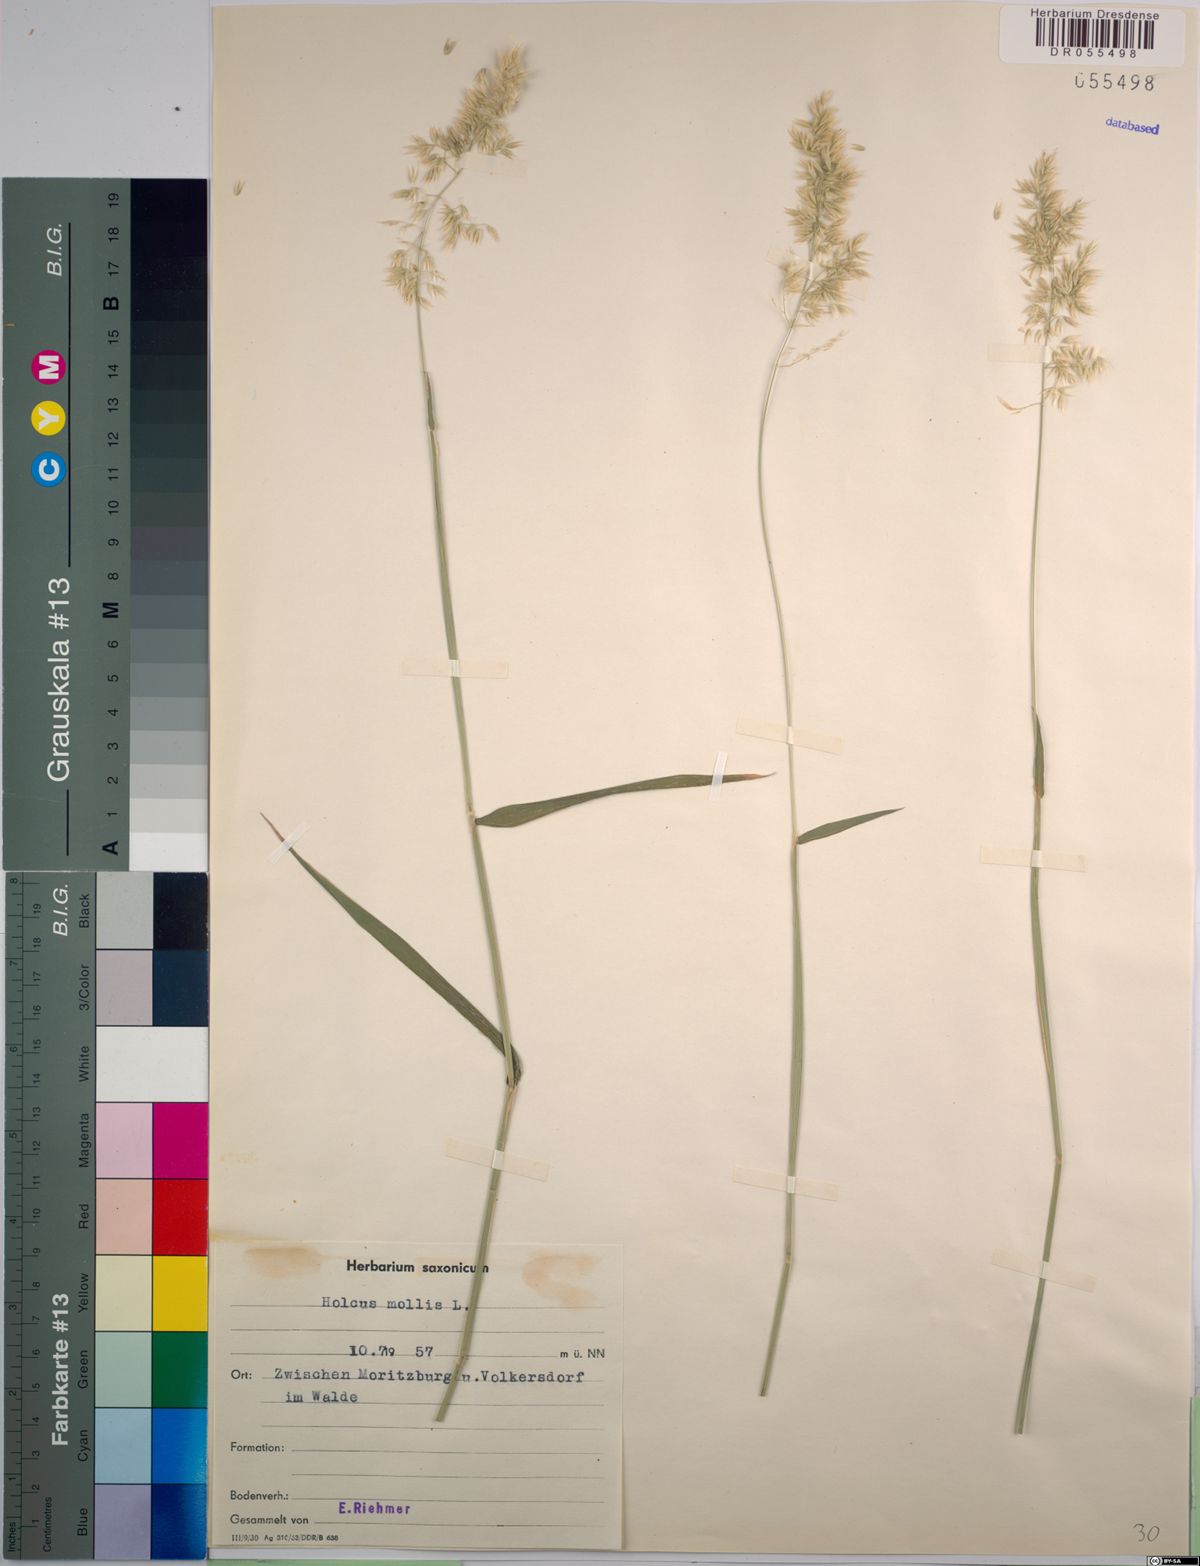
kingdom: Plantae
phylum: Tracheophyta
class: Liliopsida
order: Poales
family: Poaceae
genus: Holcus
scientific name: Holcus mollis
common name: Creeping velvetgrass
